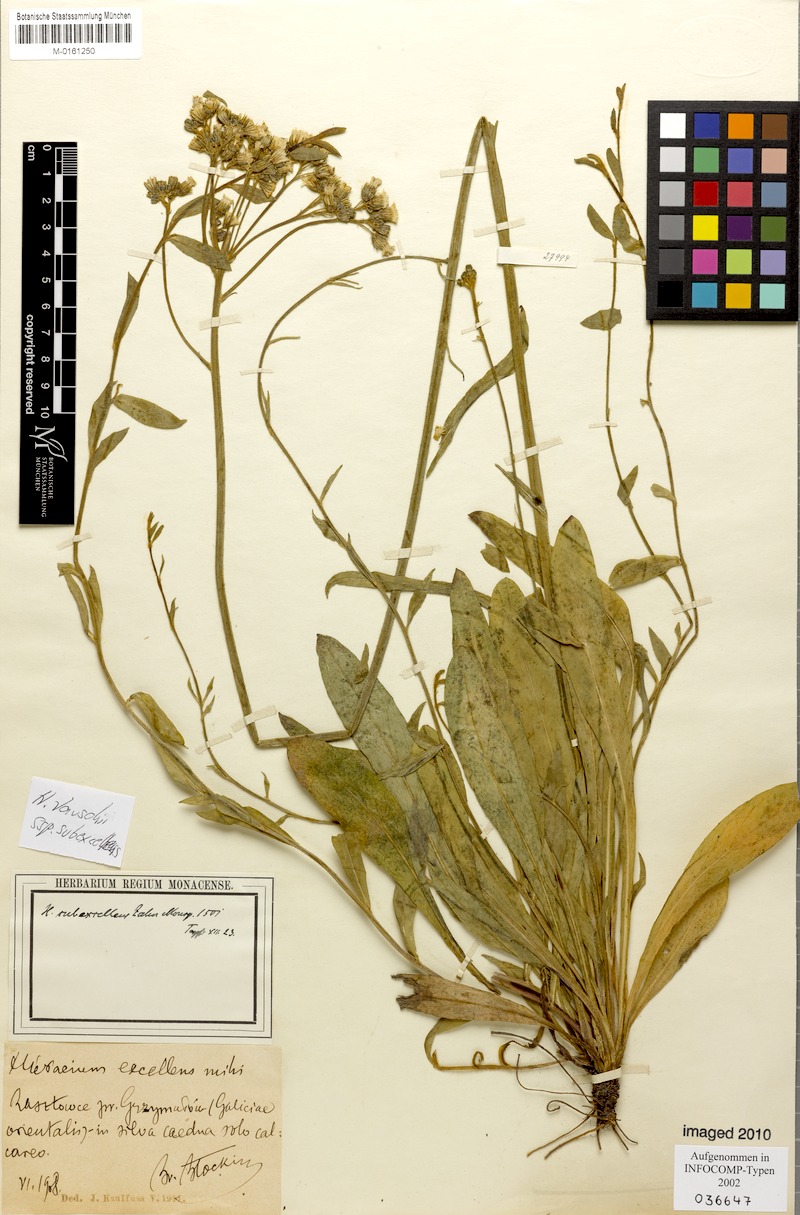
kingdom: Plantae
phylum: Tracheophyta
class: Magnoliopsida
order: Asterales
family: Asteraceae
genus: Pilosella
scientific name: Pilosella densiflora
